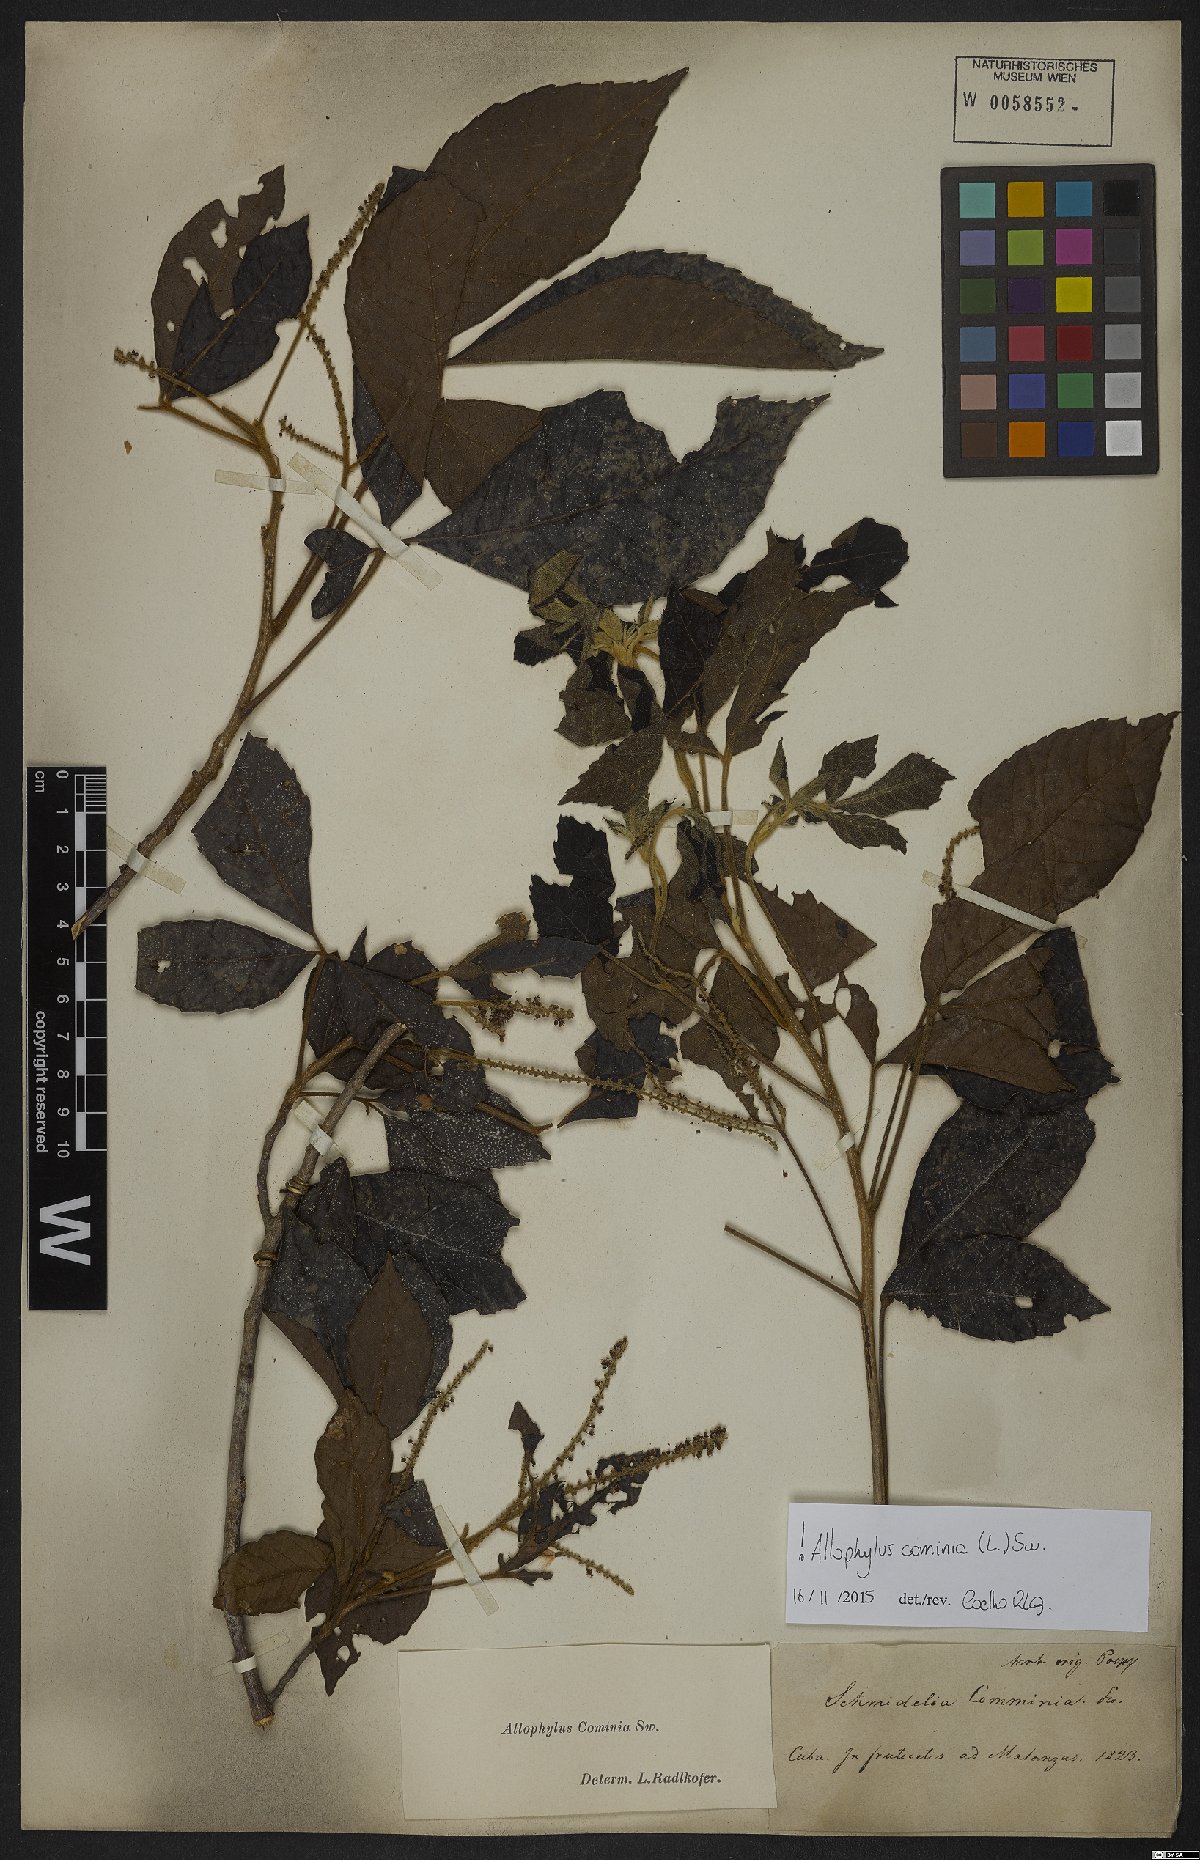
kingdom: Plantae
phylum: Tracheophyta
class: Magnoliopsida
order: Sapindales
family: Sapindaceae
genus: Allophylus
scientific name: Allophylus cominia
